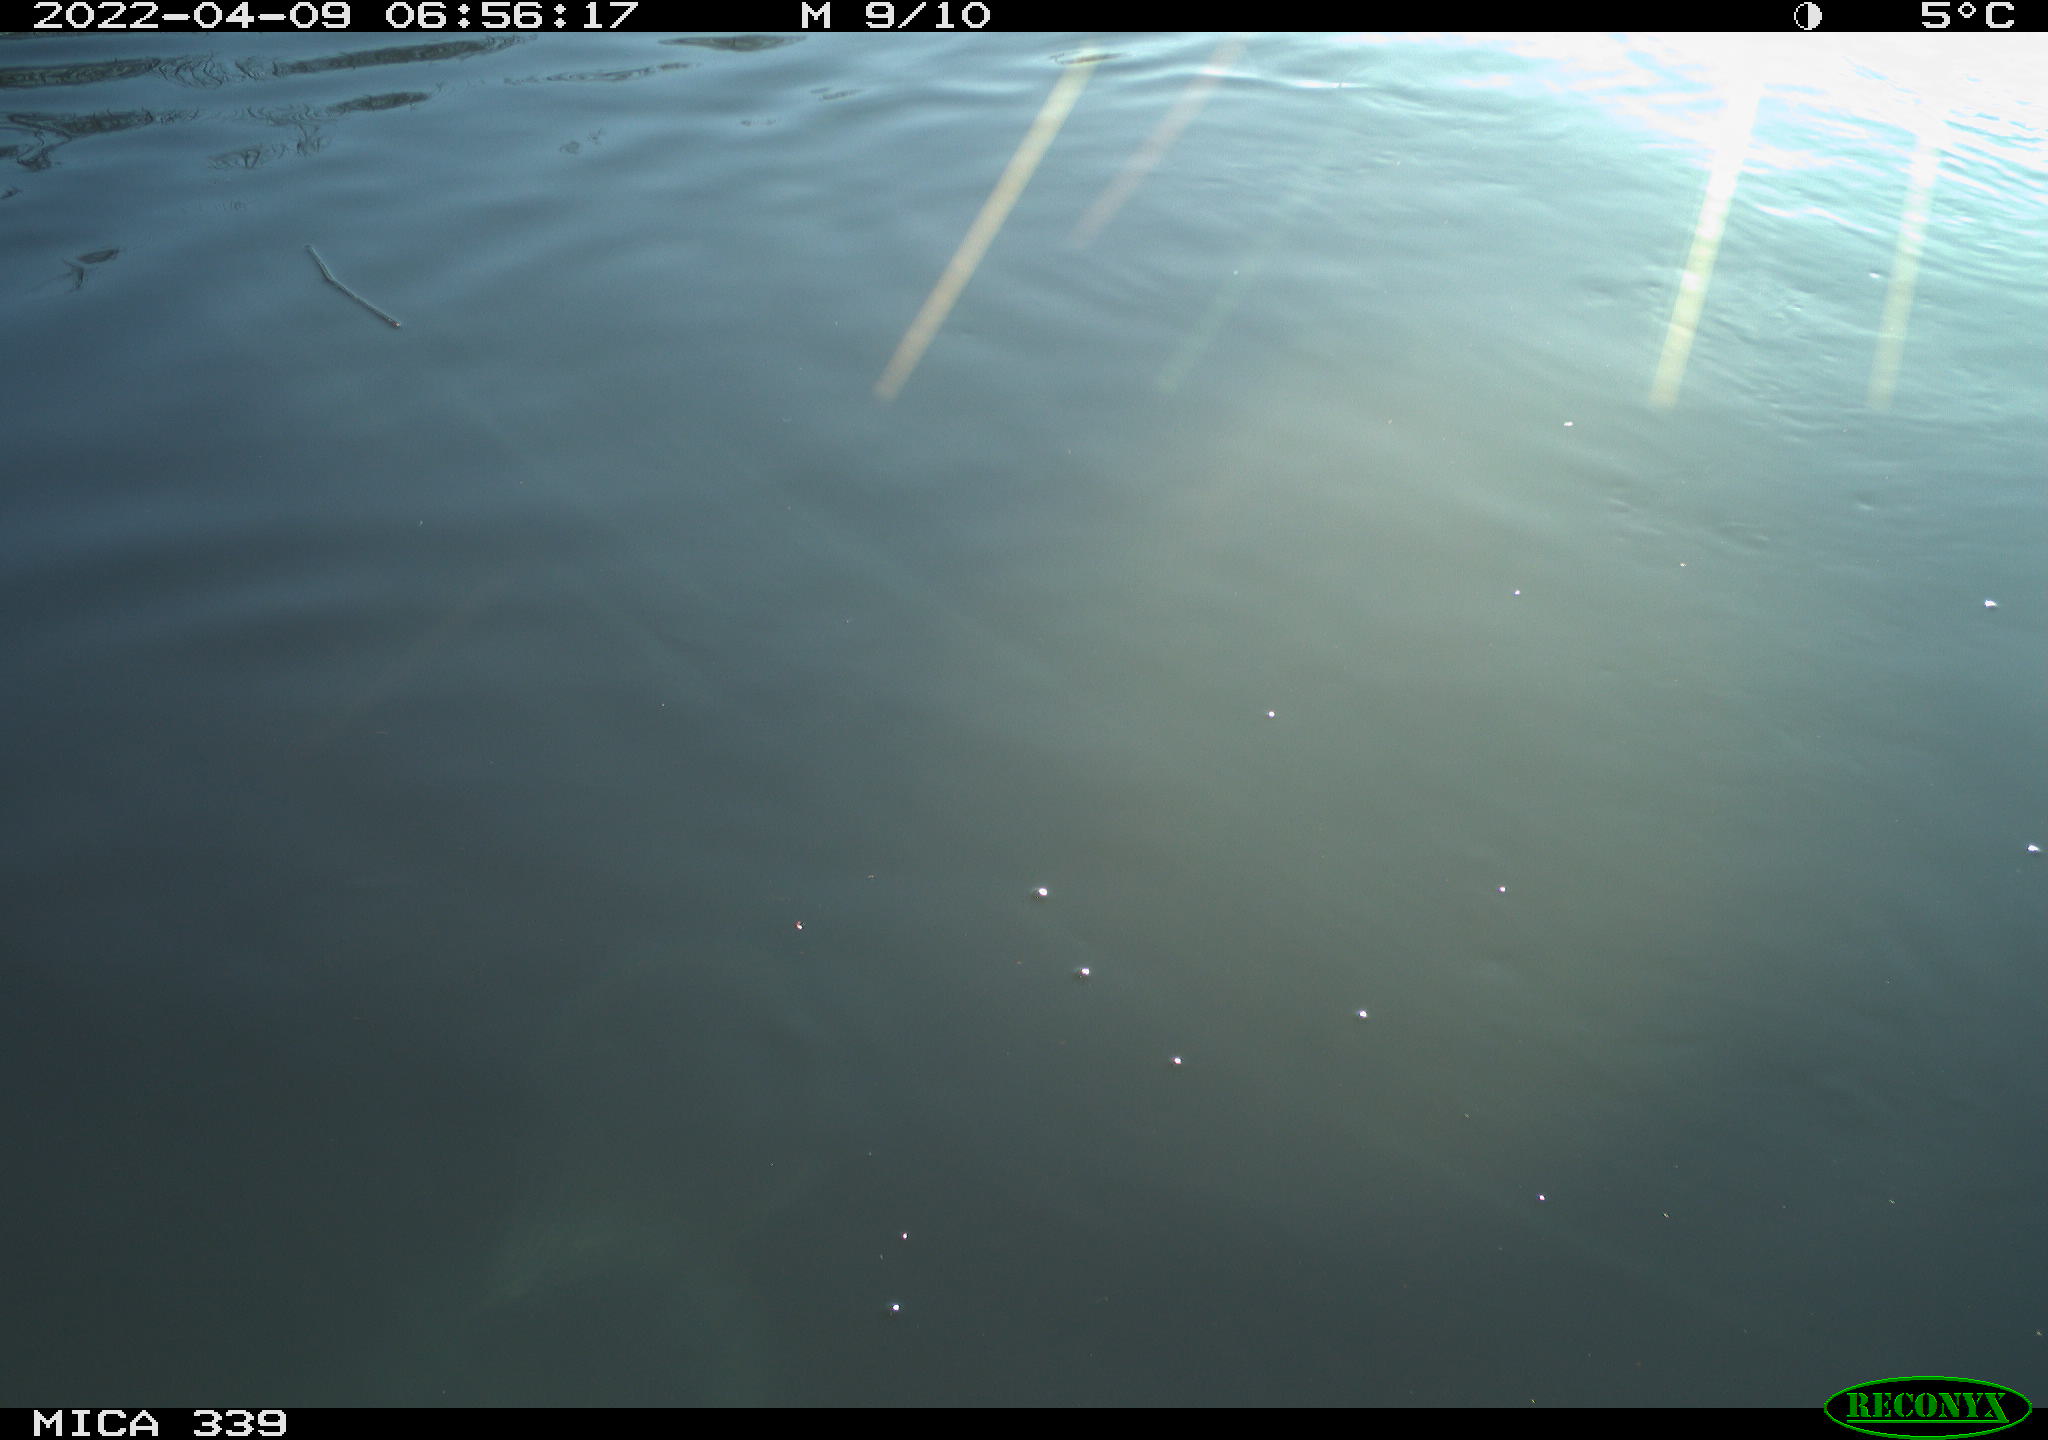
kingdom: Animalia
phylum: Chordata
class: Aves
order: Suliformes
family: Phalacrocoracidae
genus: Phalacrocorax
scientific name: Phalacrocorax carbo
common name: Great cormorant
